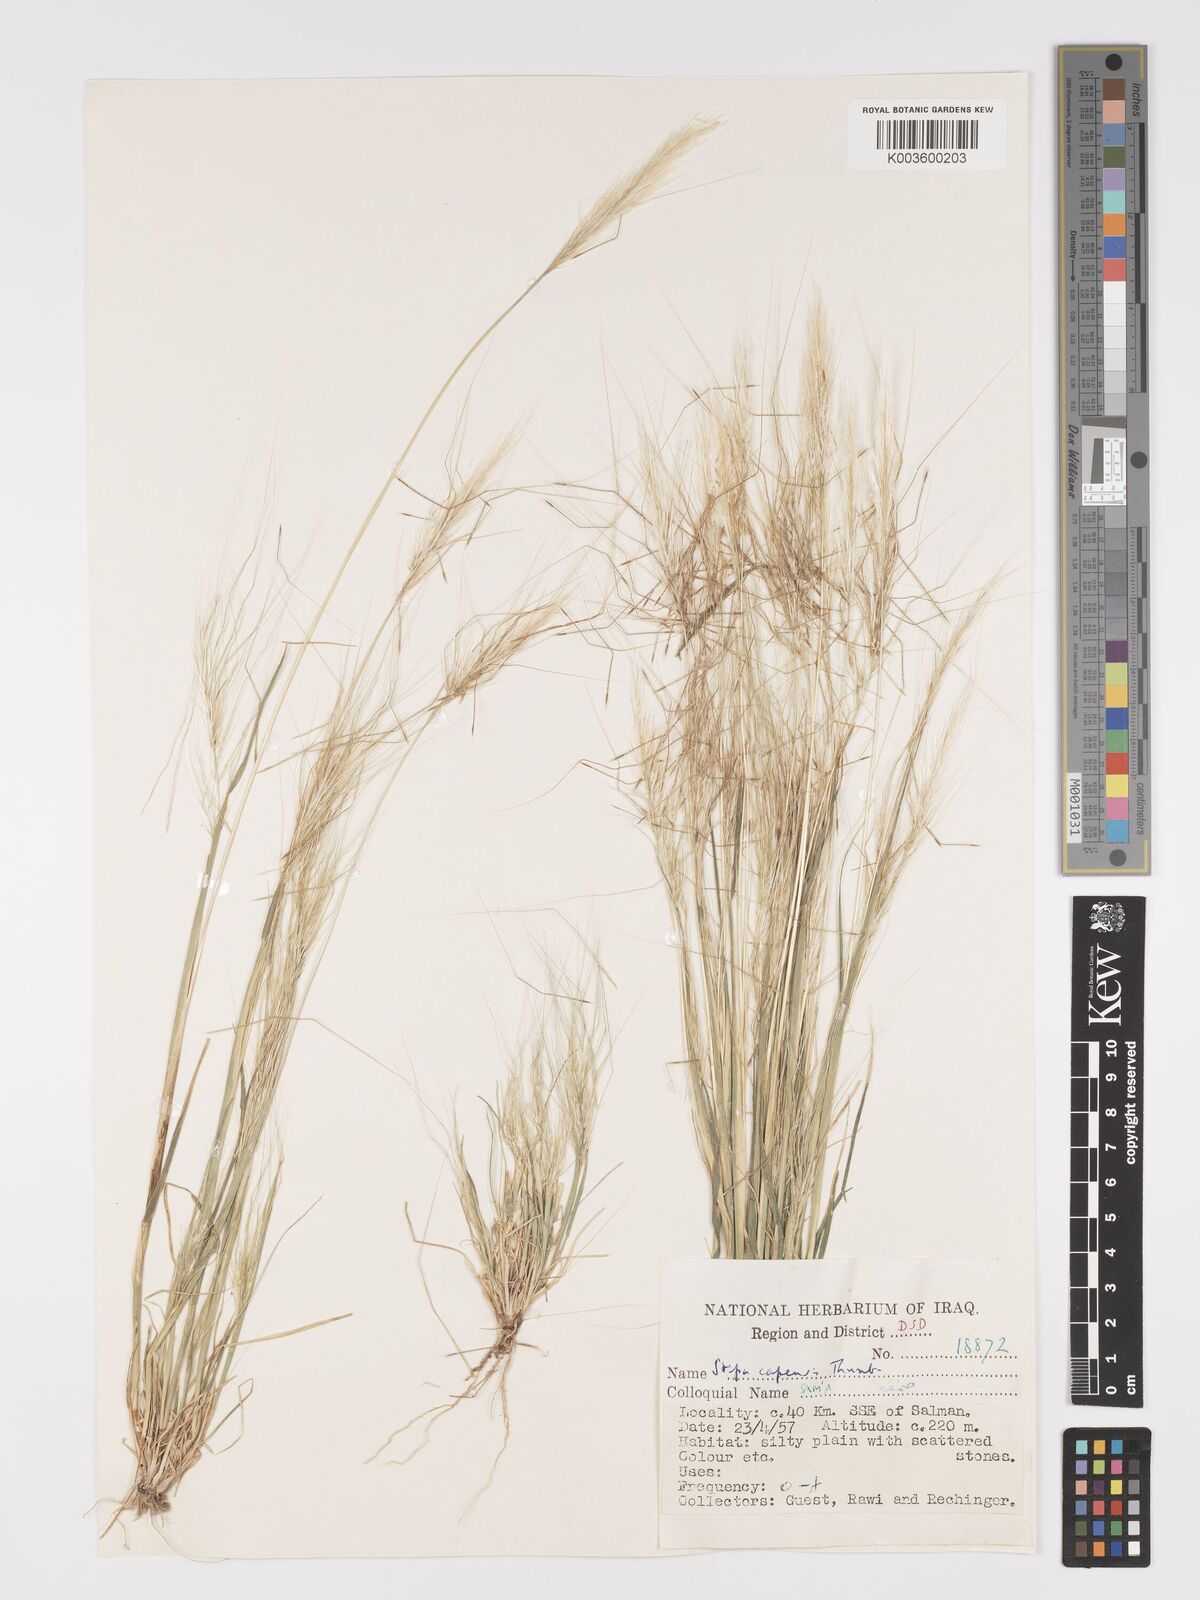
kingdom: Plantae
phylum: Tracheophyta
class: Liliopsida
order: Poales
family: Poaceae
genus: Stipellula
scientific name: Stipellula capensis
